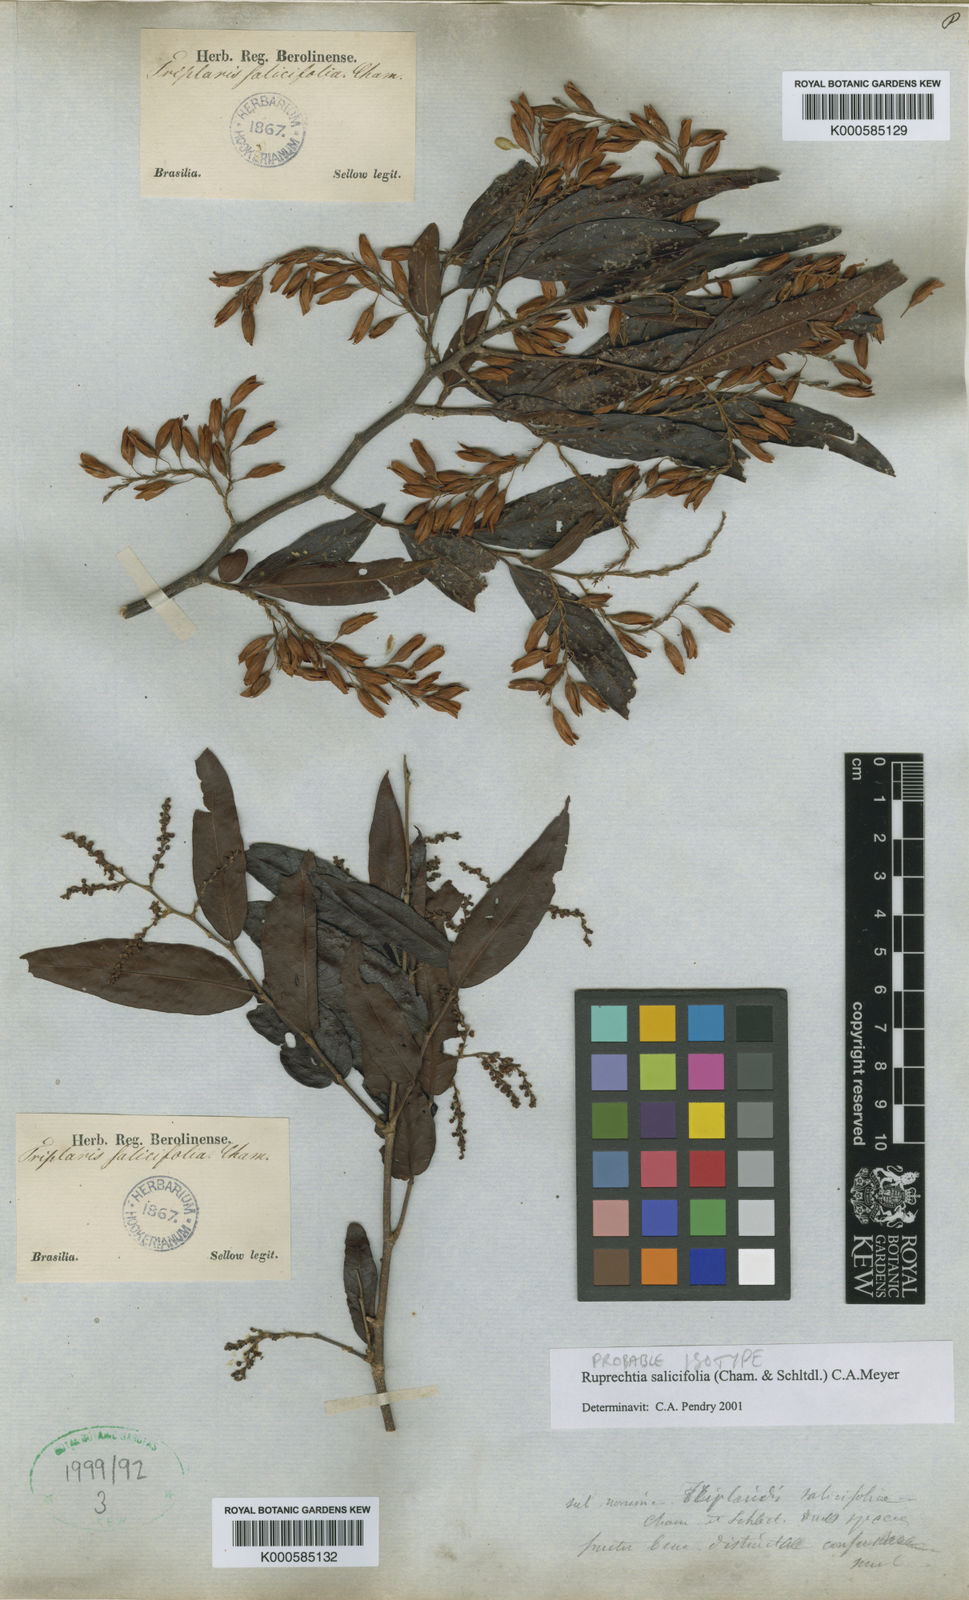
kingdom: Plantae
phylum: Tracheophyta
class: Magnoliopsida
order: Caryophyllales
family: Polygonaceae
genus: Ruprechtia
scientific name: Ruprechtia salicifolia
